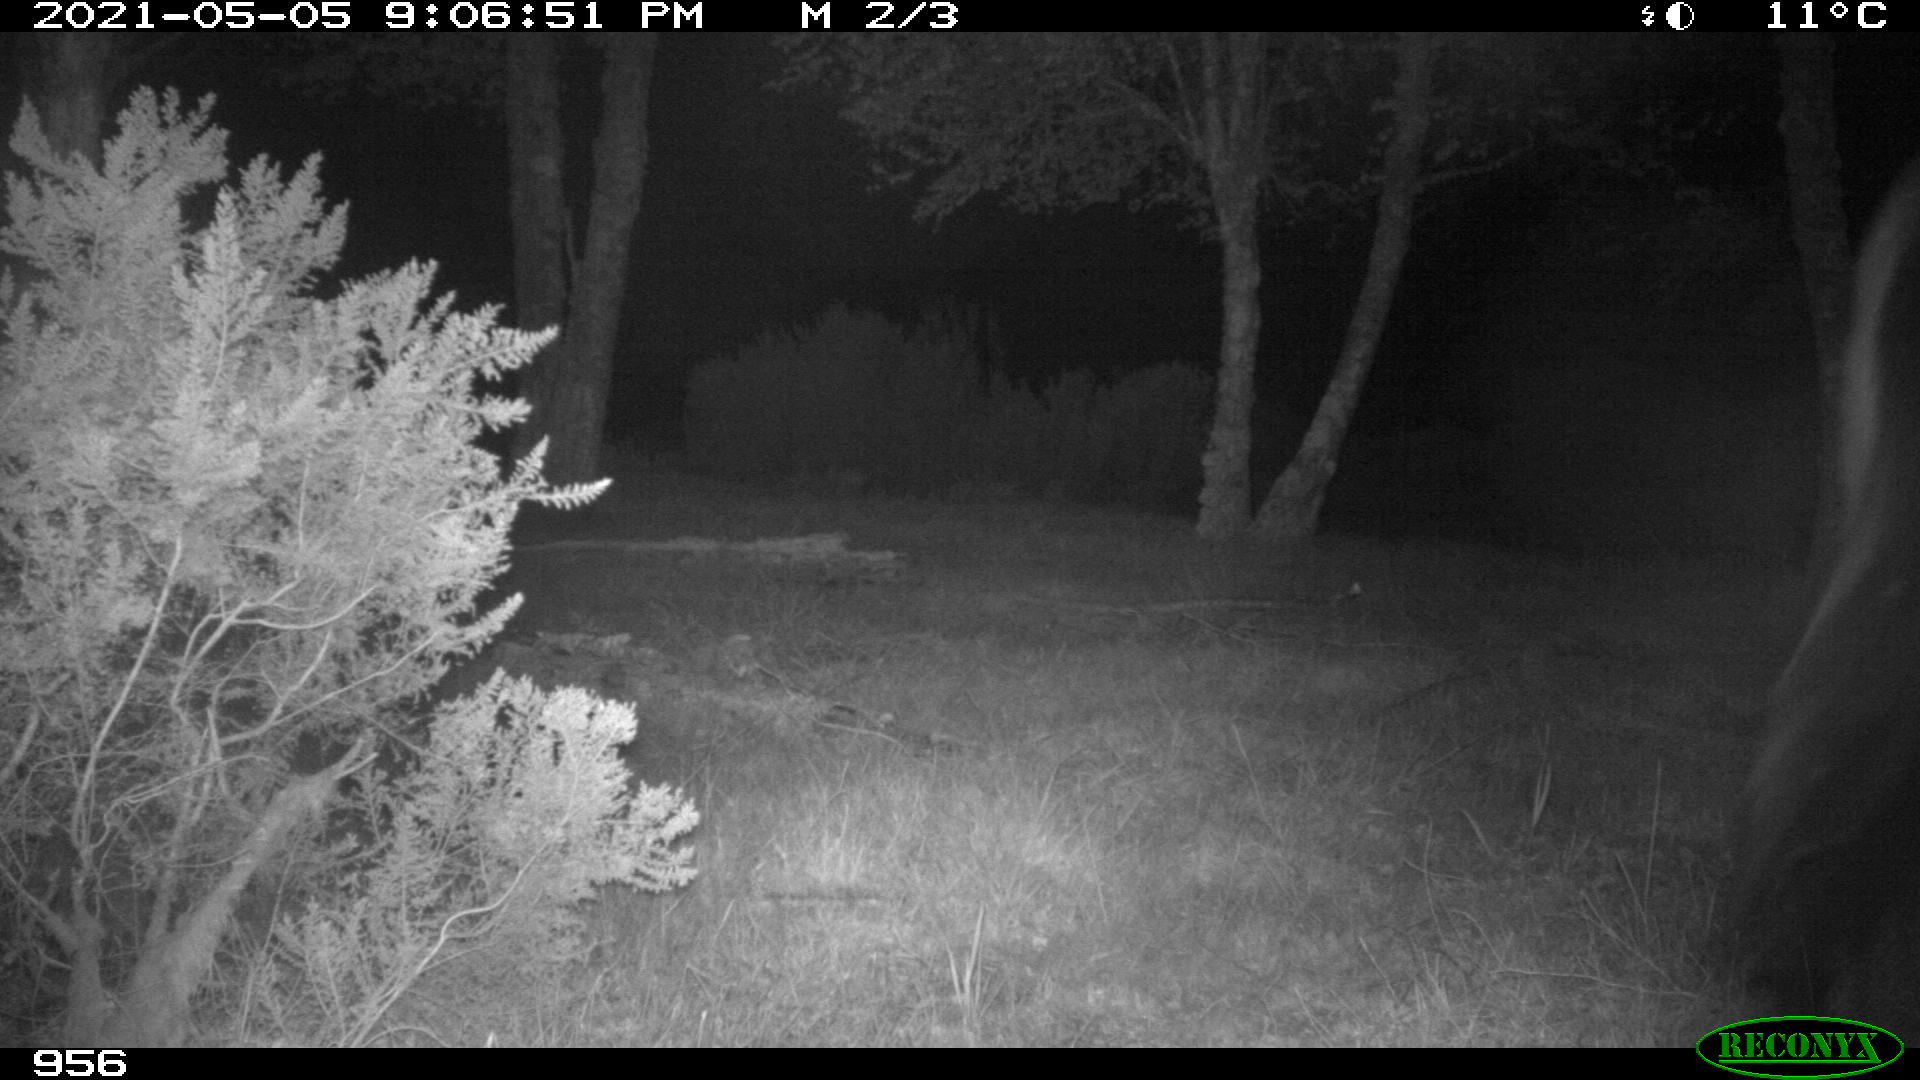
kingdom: Animalia
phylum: Chordata
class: Mammalia
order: Perissodactyla
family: Equidae
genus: Equus
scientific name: Equus caballus
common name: Horse
